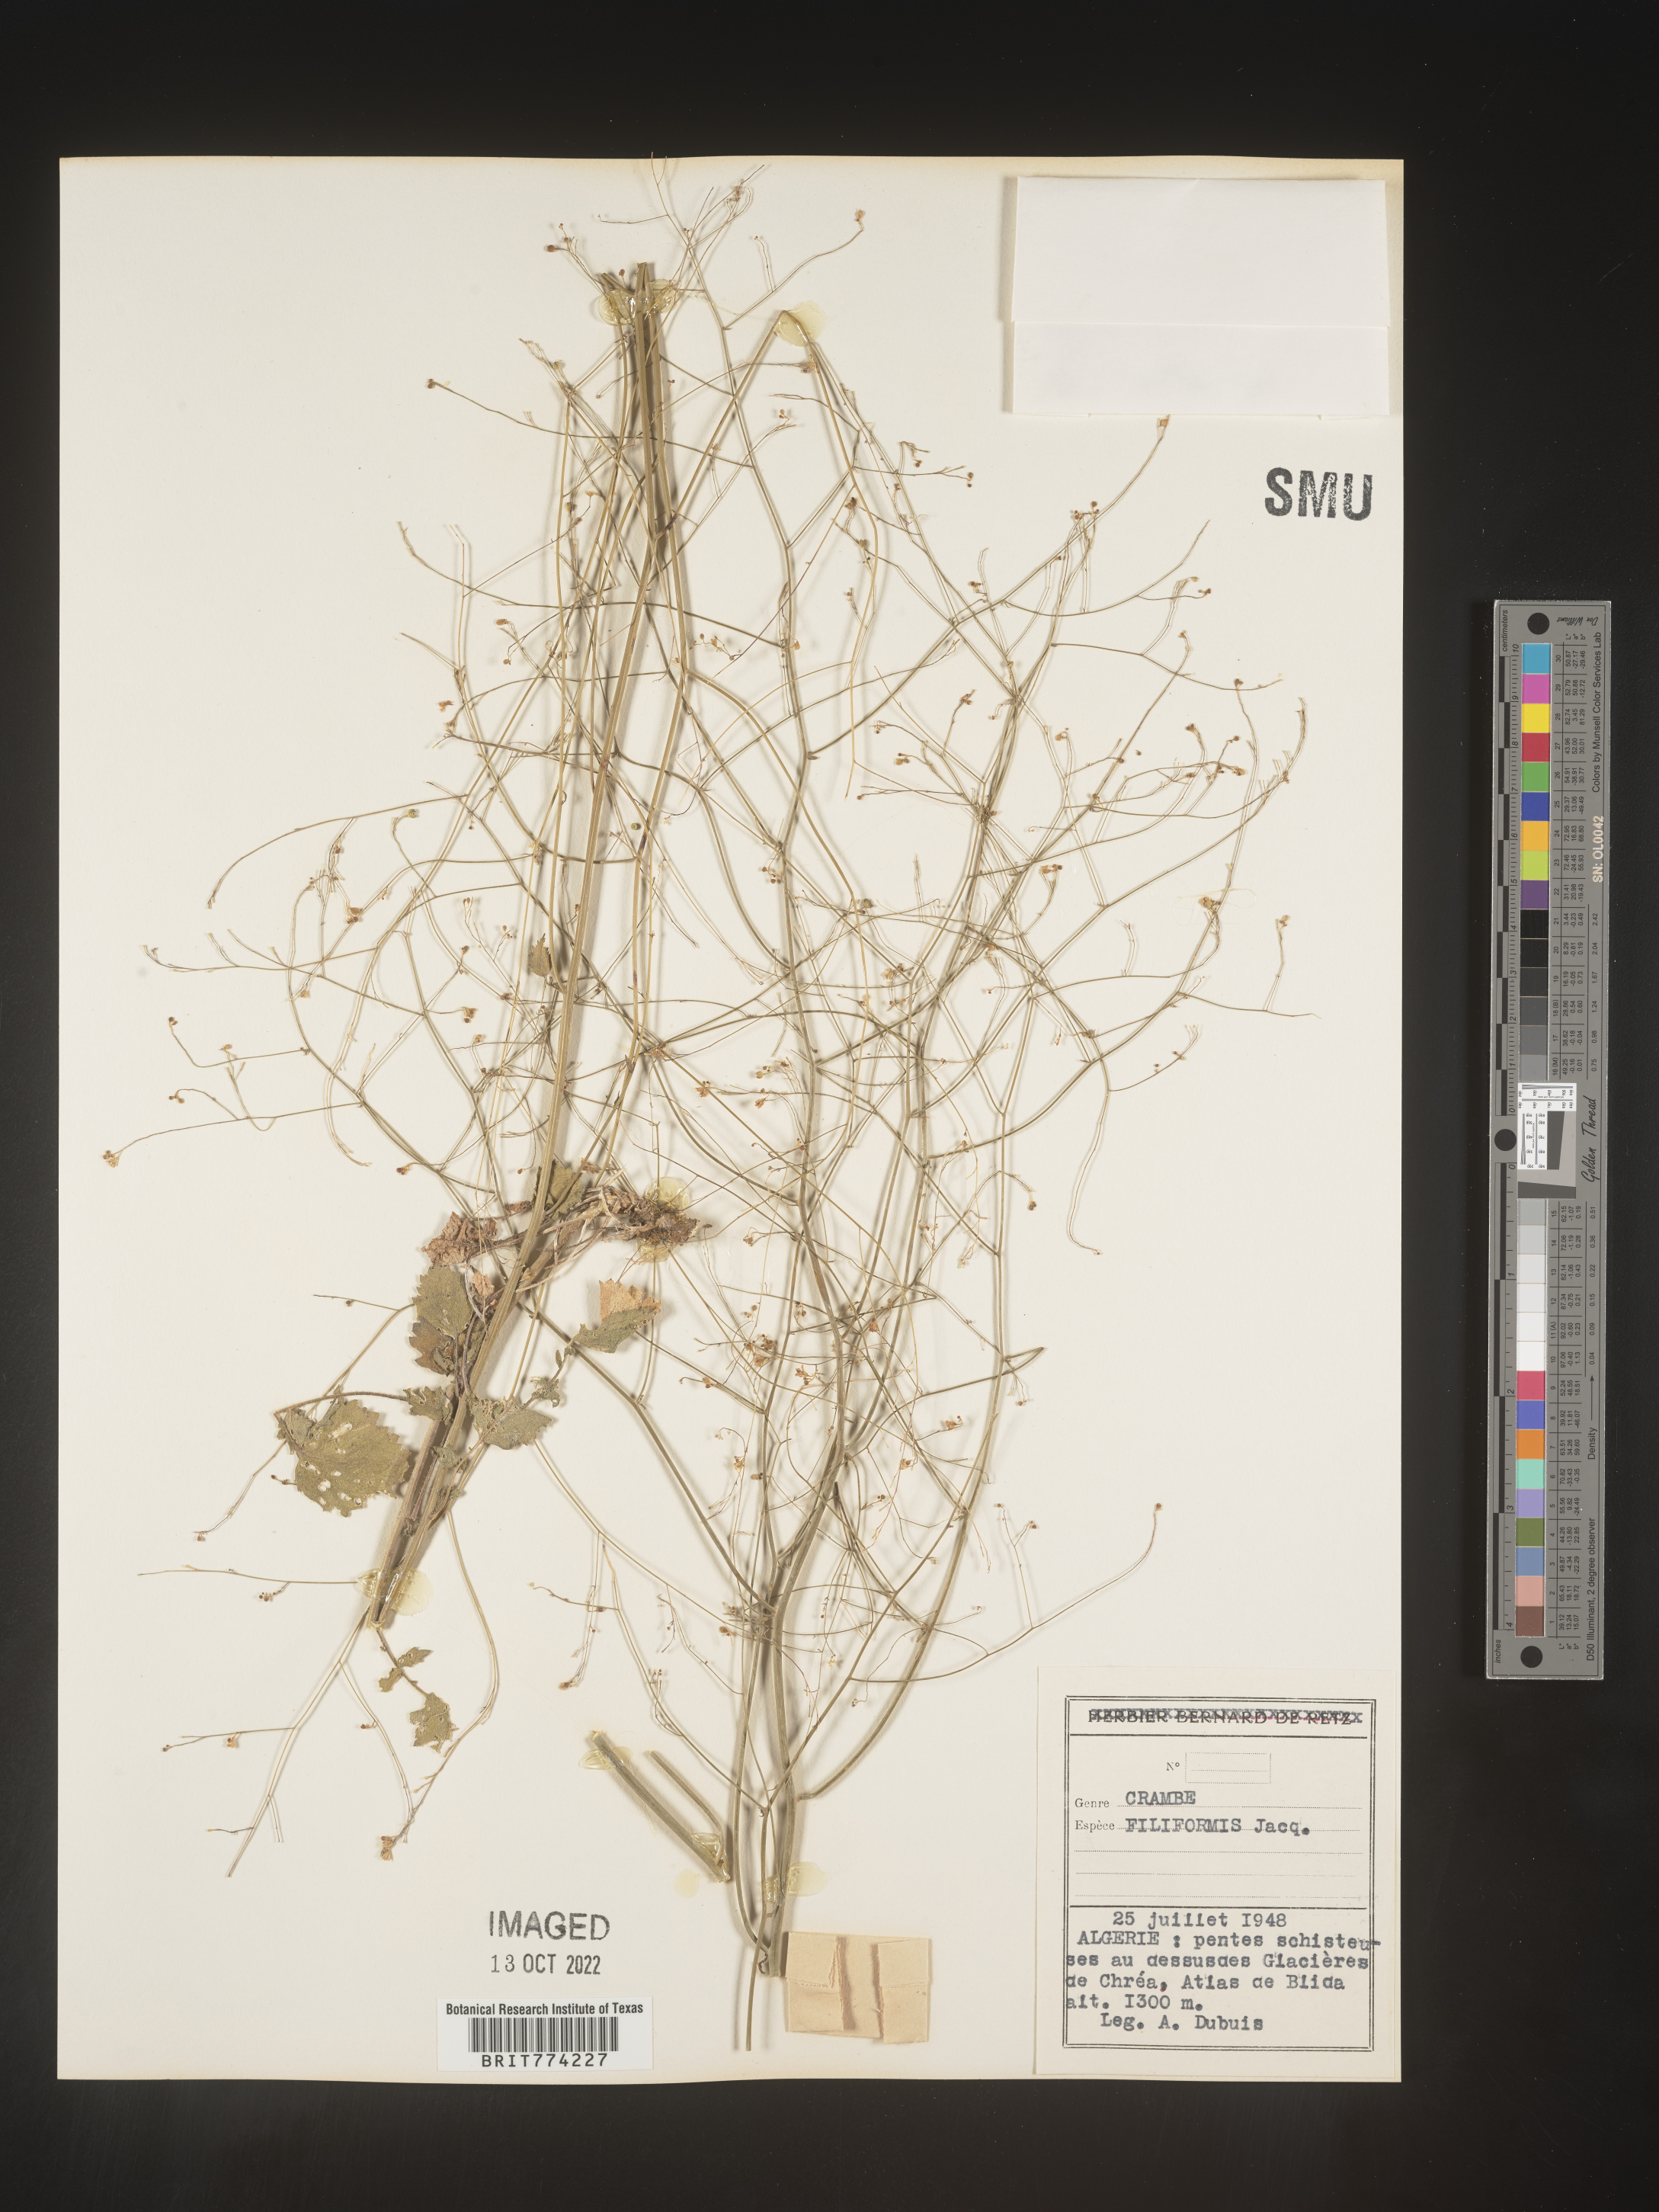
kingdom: Plantae
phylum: Tracheophyta
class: Magnoliopsida
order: Brassicales
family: Brassicaceae
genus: Crambe
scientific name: Crambe
